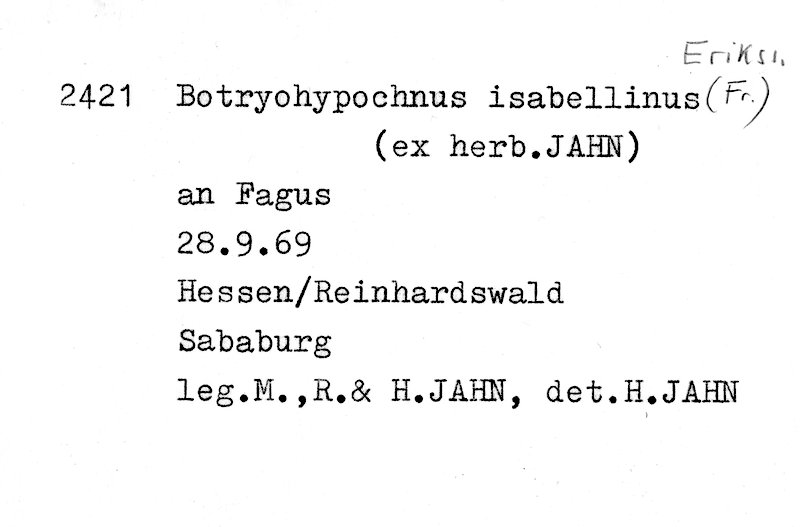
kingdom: Fungi
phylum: Basidiomycota
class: Agaricomycetes
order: Cantharellales
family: Botryobasidiaceae
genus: Botryobasidium
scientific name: Botryobasidium isabellinum
